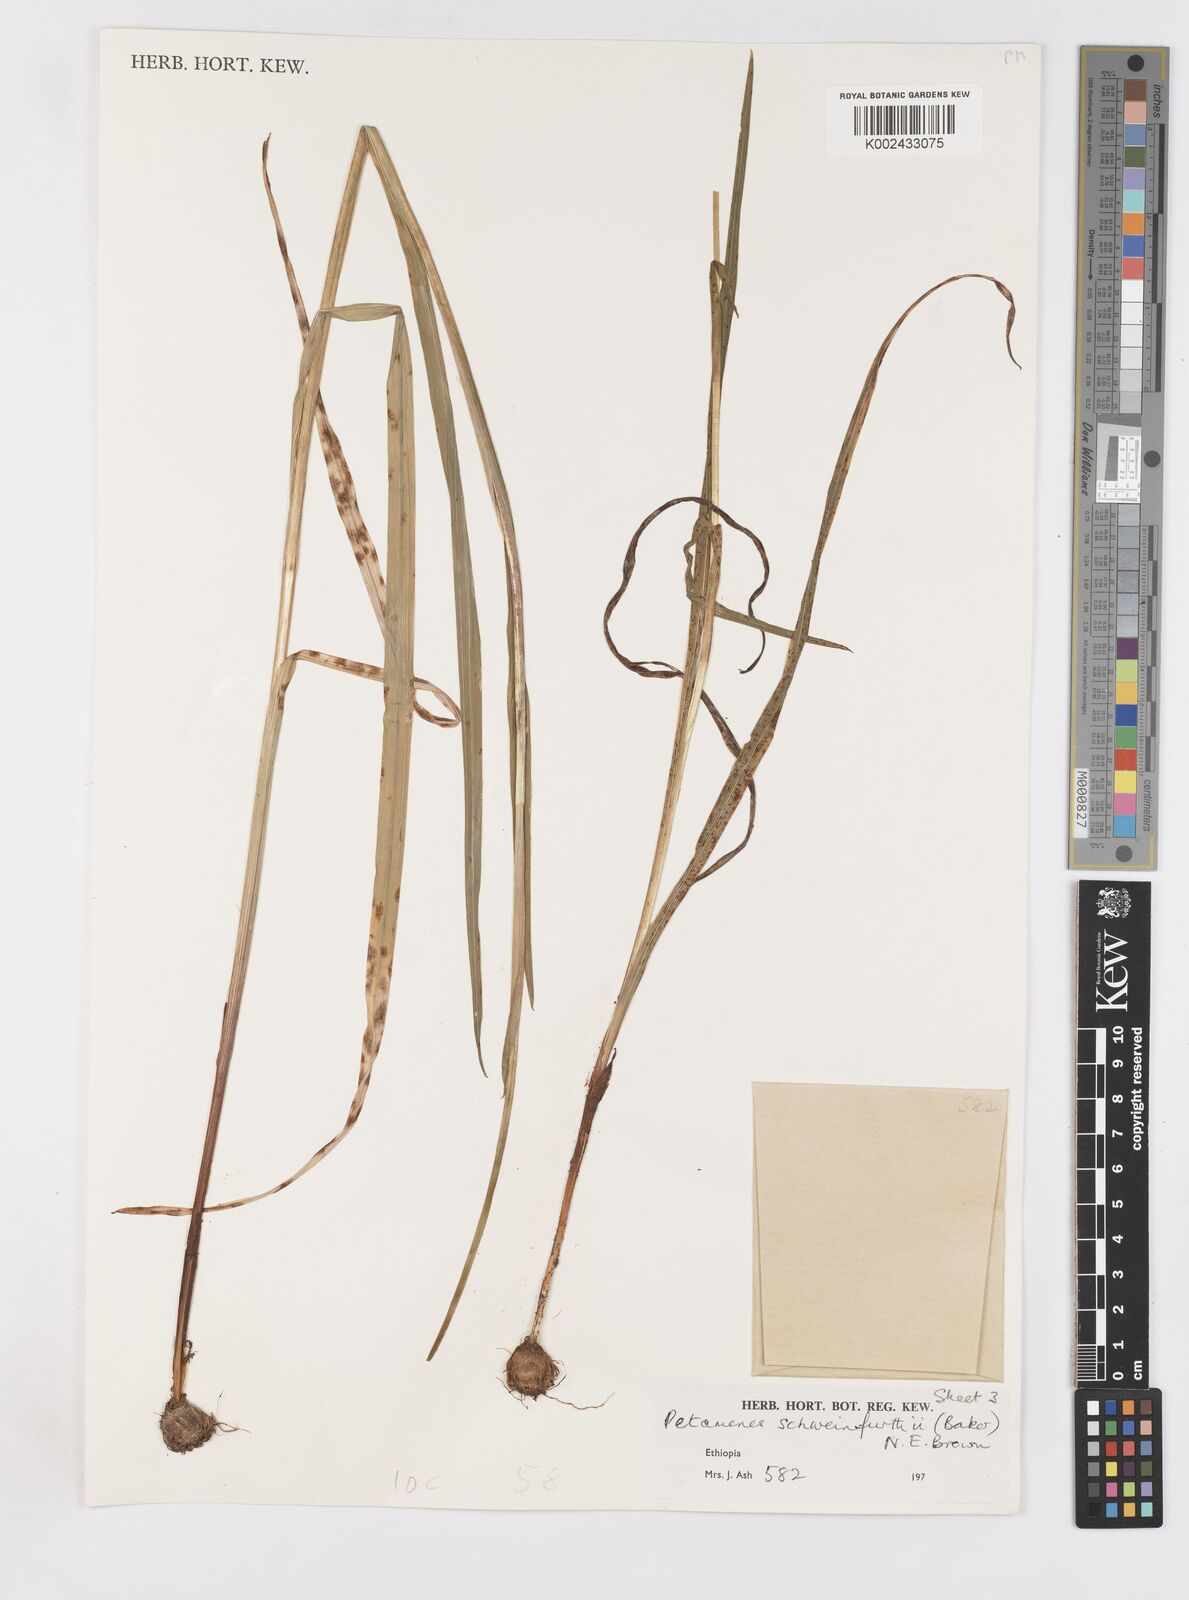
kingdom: Plantae
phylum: Tracheophyta
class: Liliopsida
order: Asparagales
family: Iridaceae
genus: Gladiolus
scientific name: Gladiolus schweinfurthii
